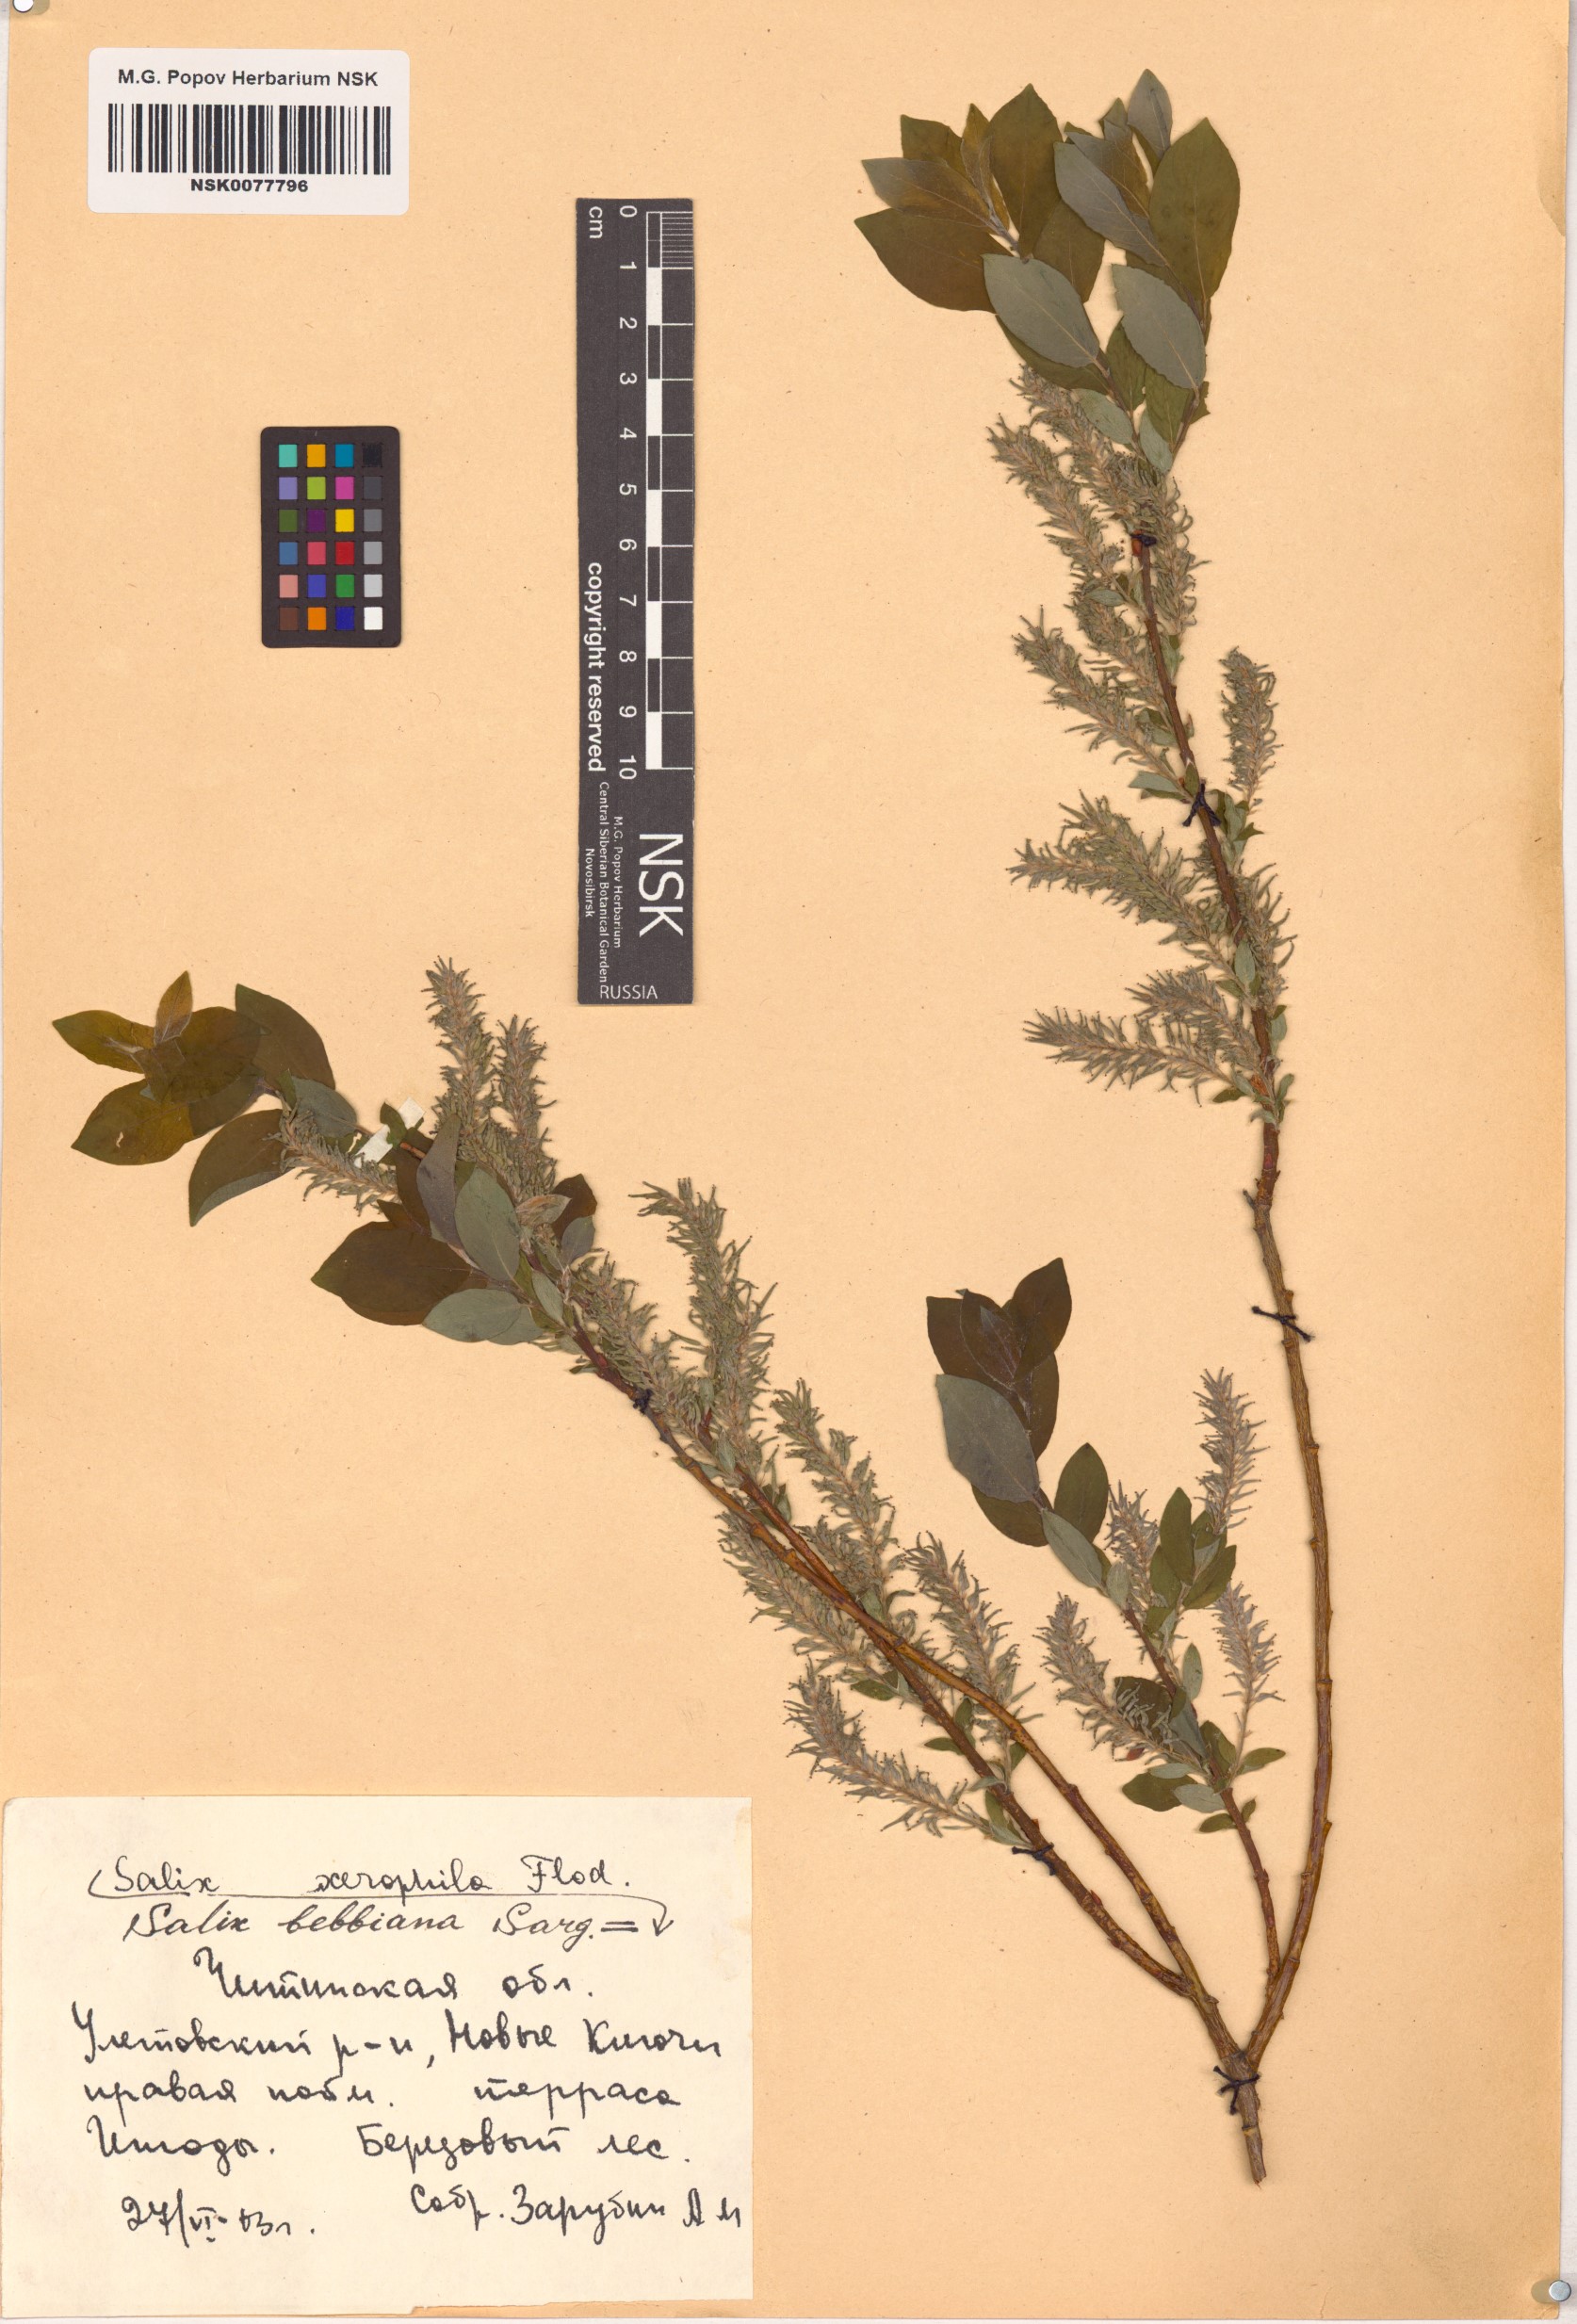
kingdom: Plantae
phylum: Tracheophyta
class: Magnoliopsida
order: Malpighiales
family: Salicaceae
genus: Salix
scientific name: Salix bebbiana
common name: Bebb's willow
